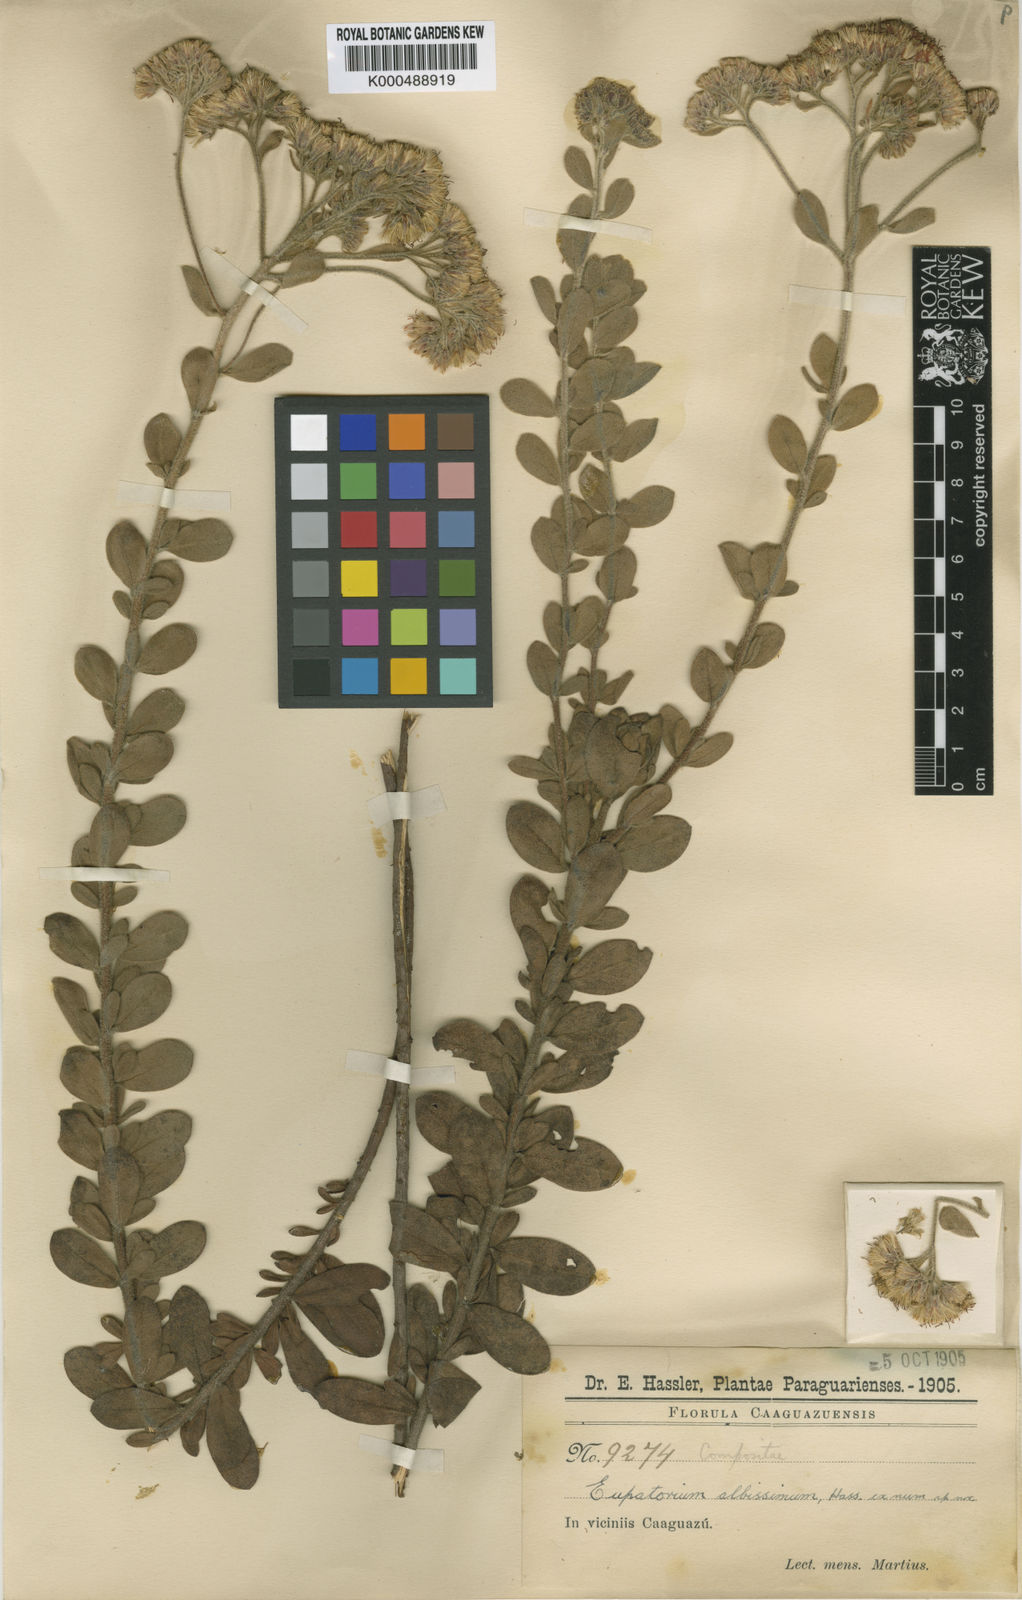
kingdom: Plantae
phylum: Tracheophyta
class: Magnoliopsida
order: Asterales
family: Asteraceae
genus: Disynaphia
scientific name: Disynaphia spathulata
